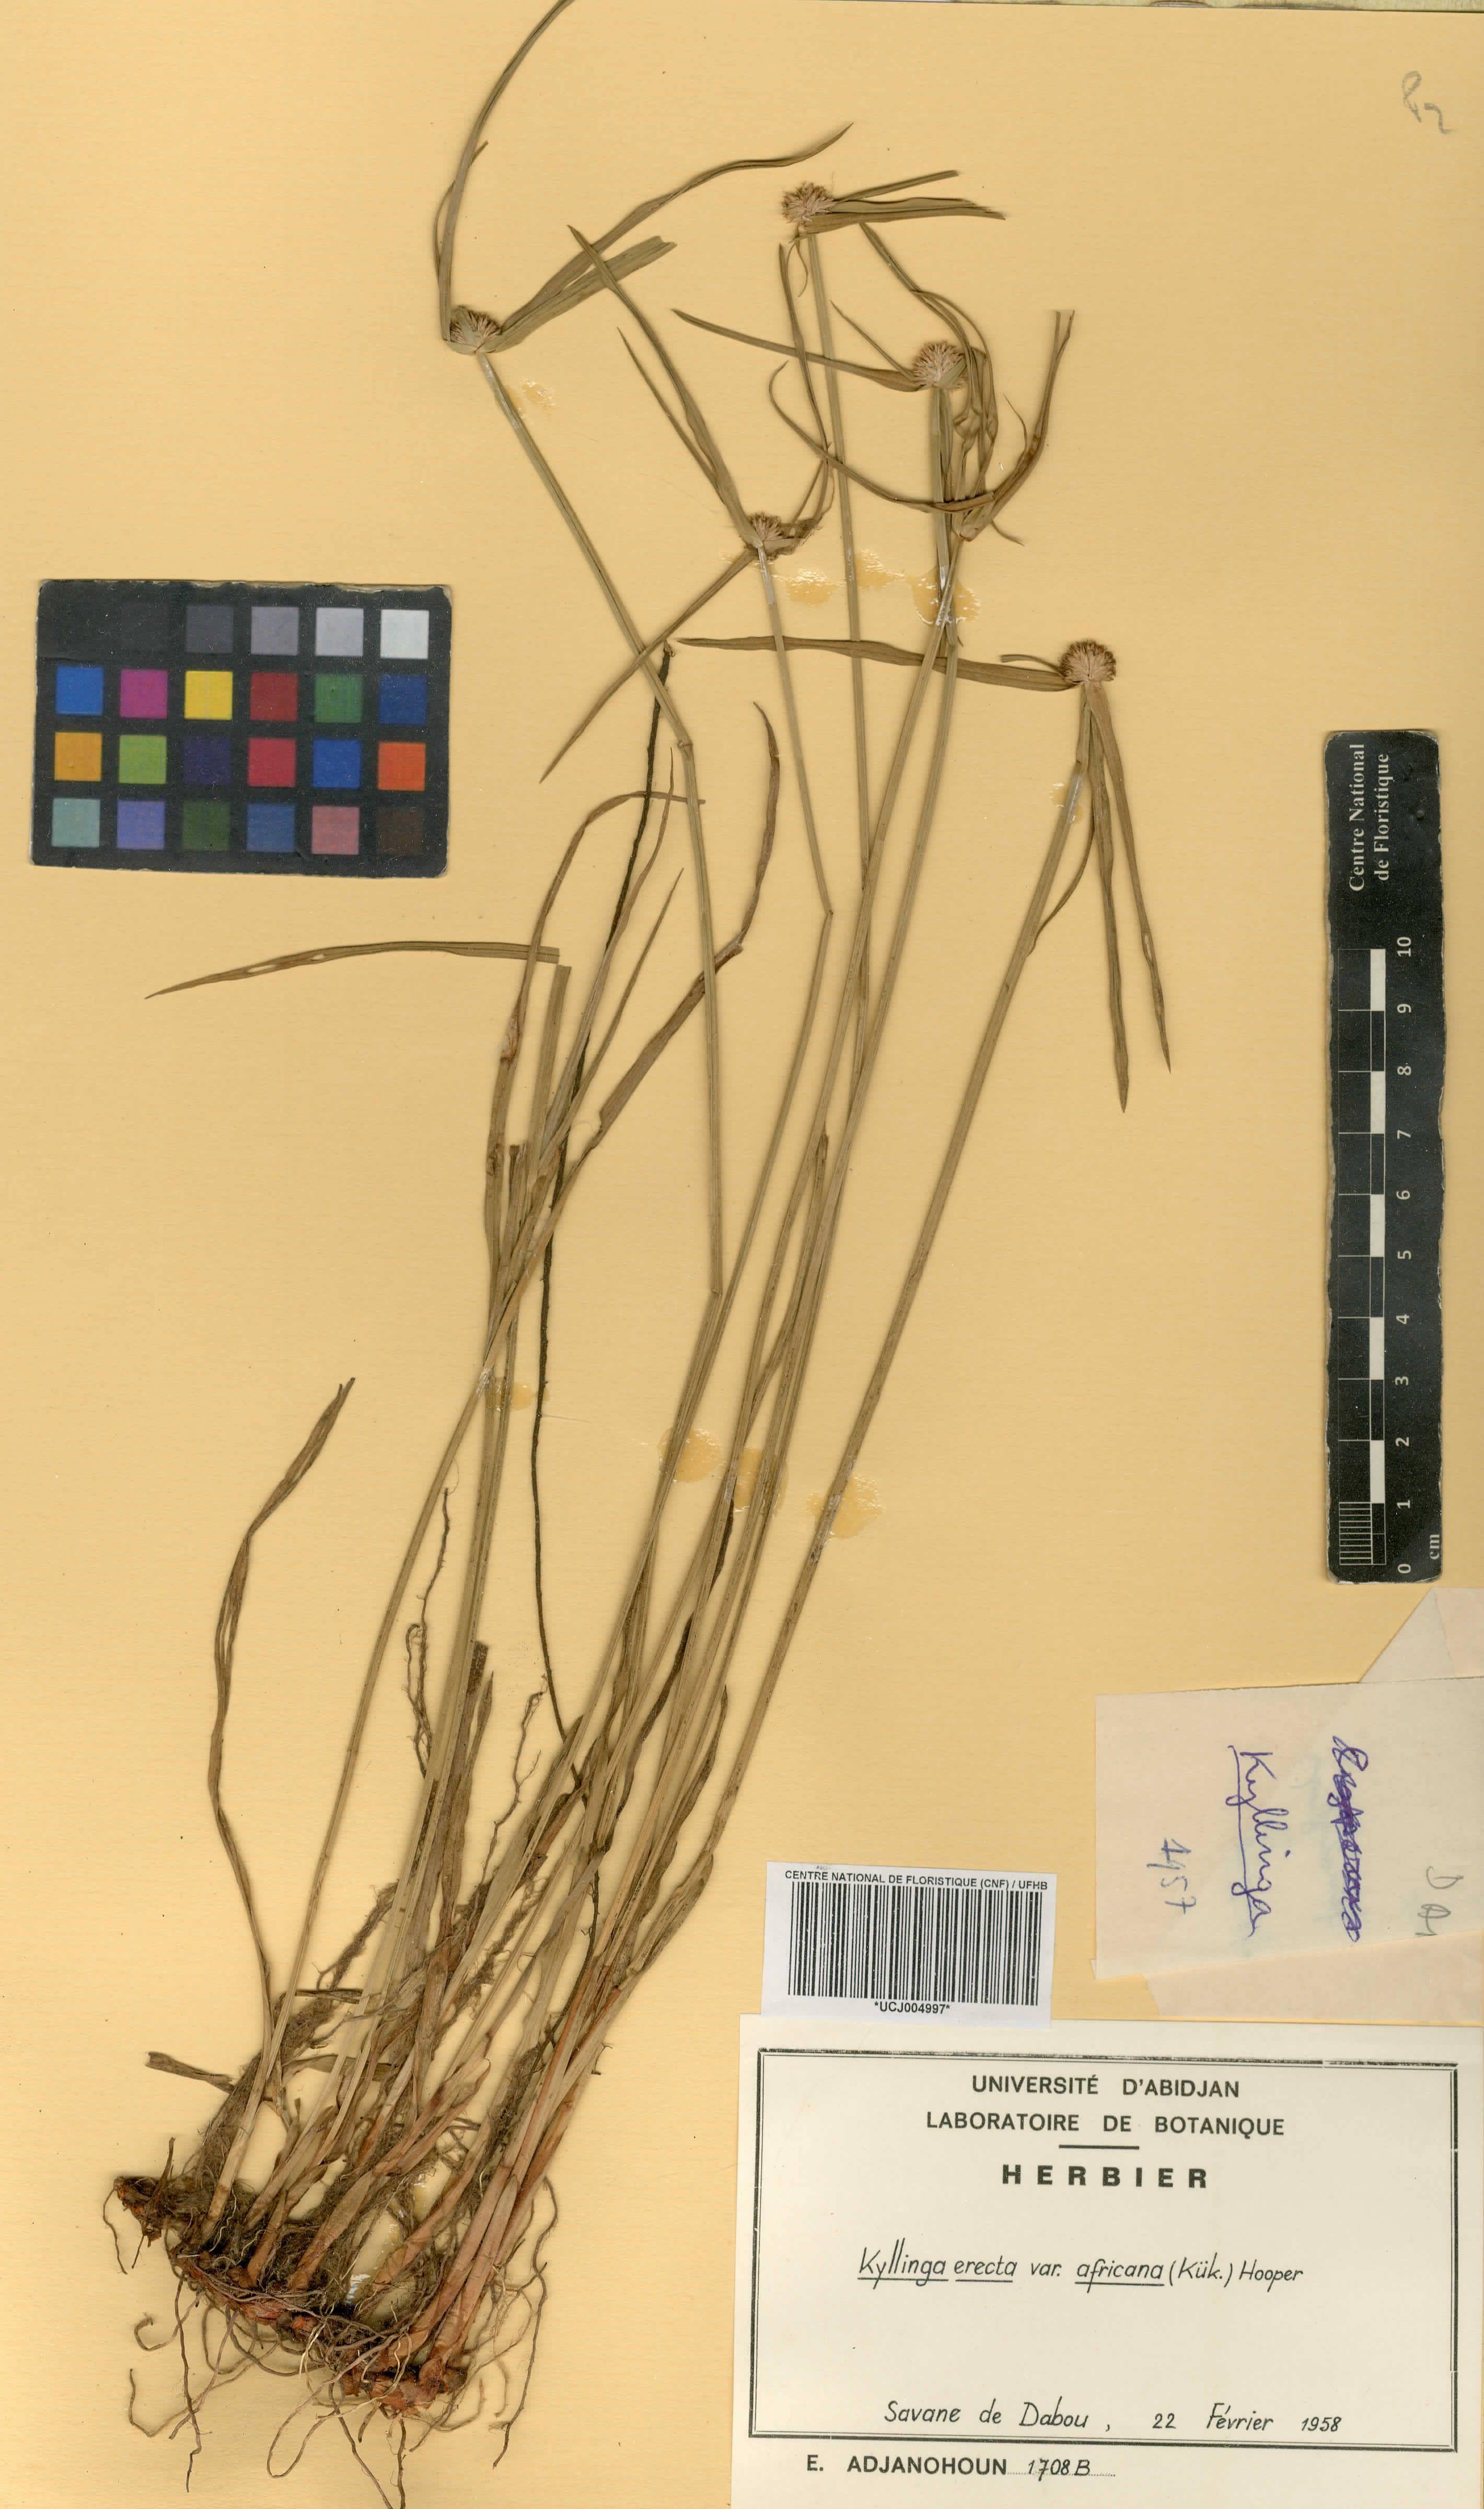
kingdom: Plantae
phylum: Tracheophyta
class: Liliopsida
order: Poales
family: Cyperaceae
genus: Cyperus
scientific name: Cyperus obtusatus
